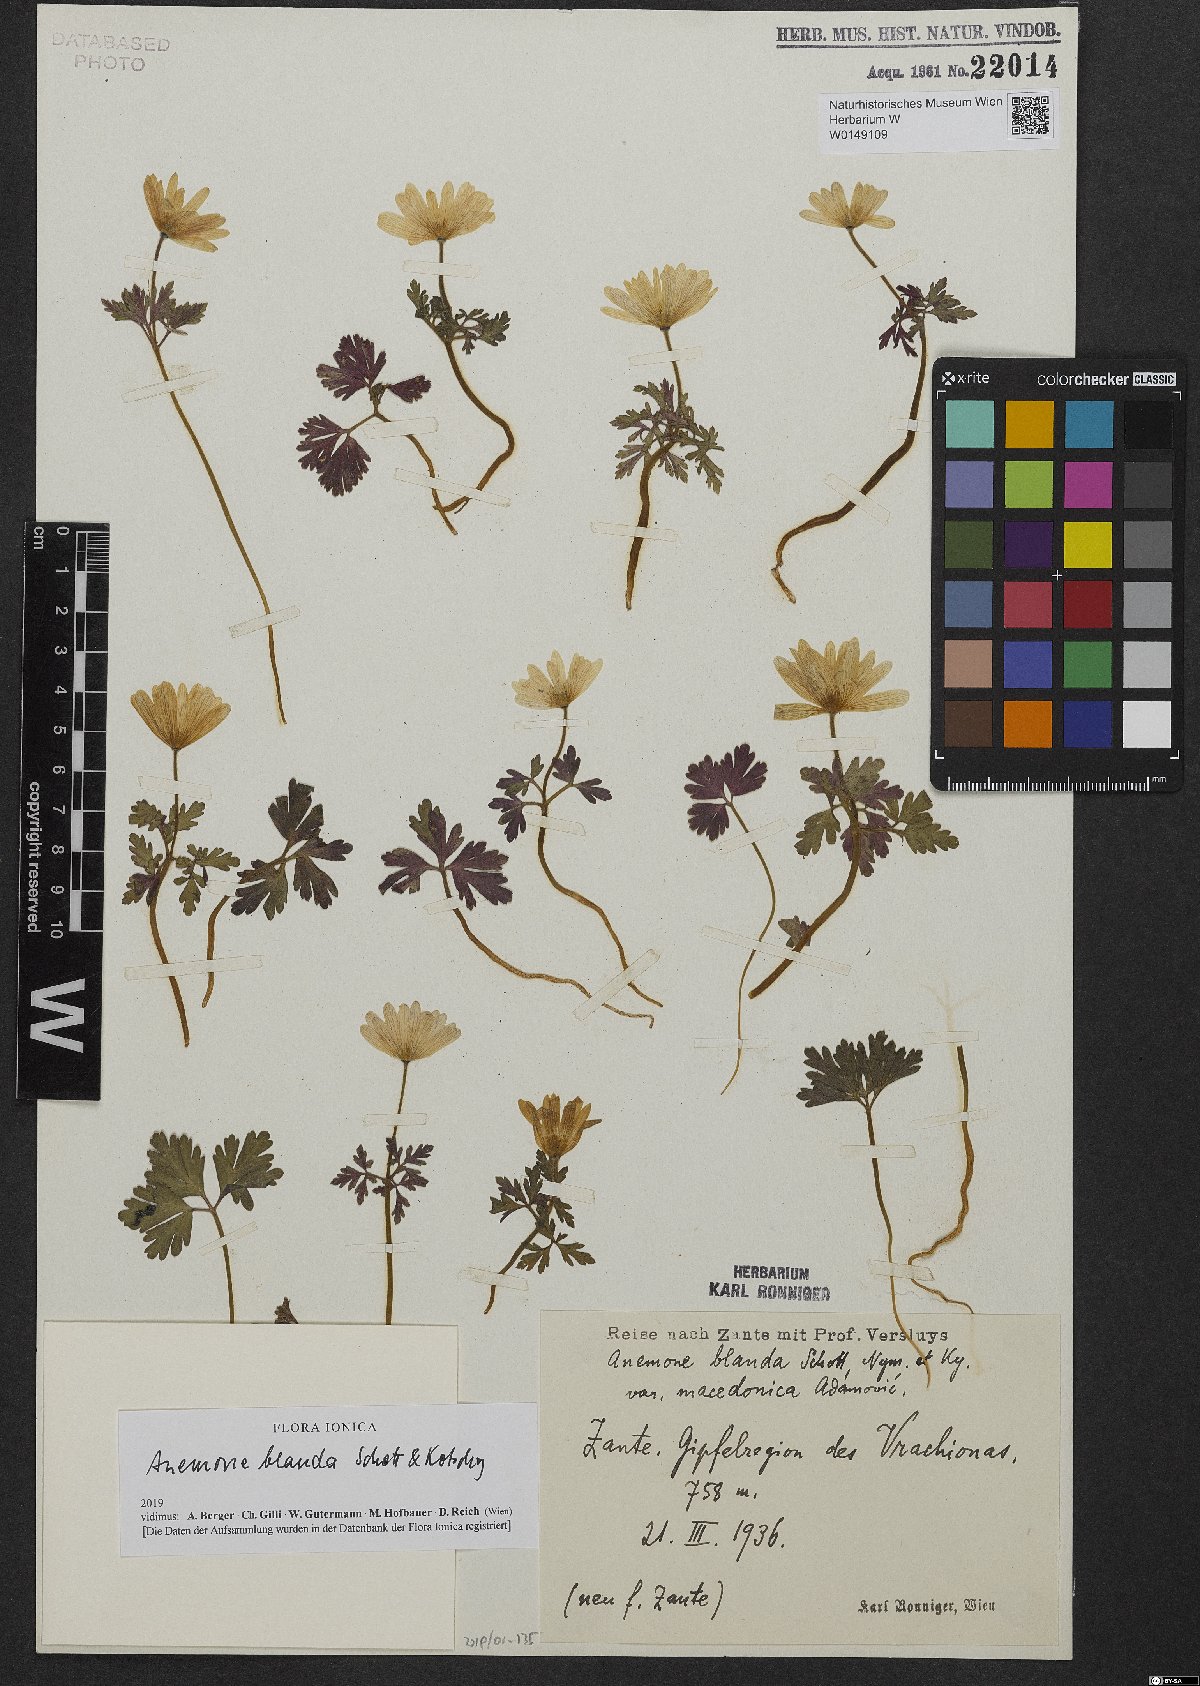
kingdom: Plantae
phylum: Tracheophyta
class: Magnoliopsida
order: Ranunculales
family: Ranunculaceae
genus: Anemone
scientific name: Anemone blanda
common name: Balkan anemone
